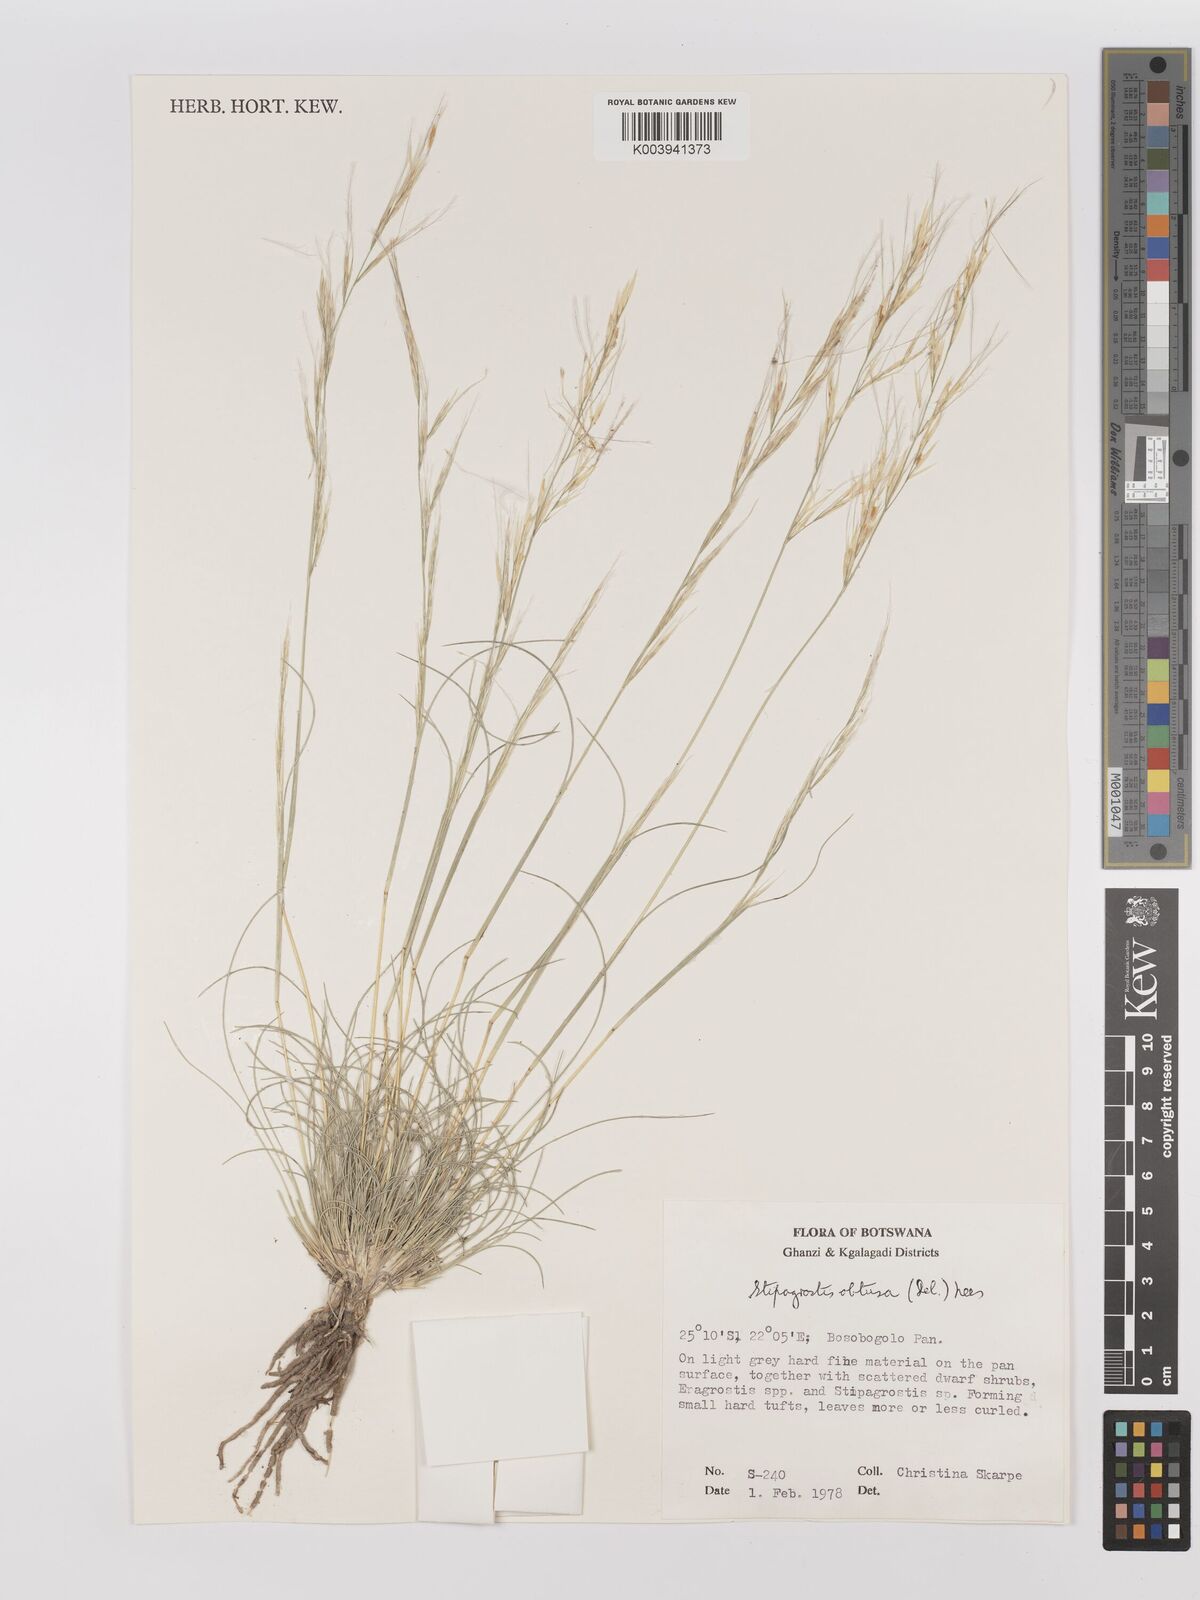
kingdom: Plantae
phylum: Tracheophyta
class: Liliopsida
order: Poales
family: Poaceae
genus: Stipagrostis
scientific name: Stipagrostis obtusa
